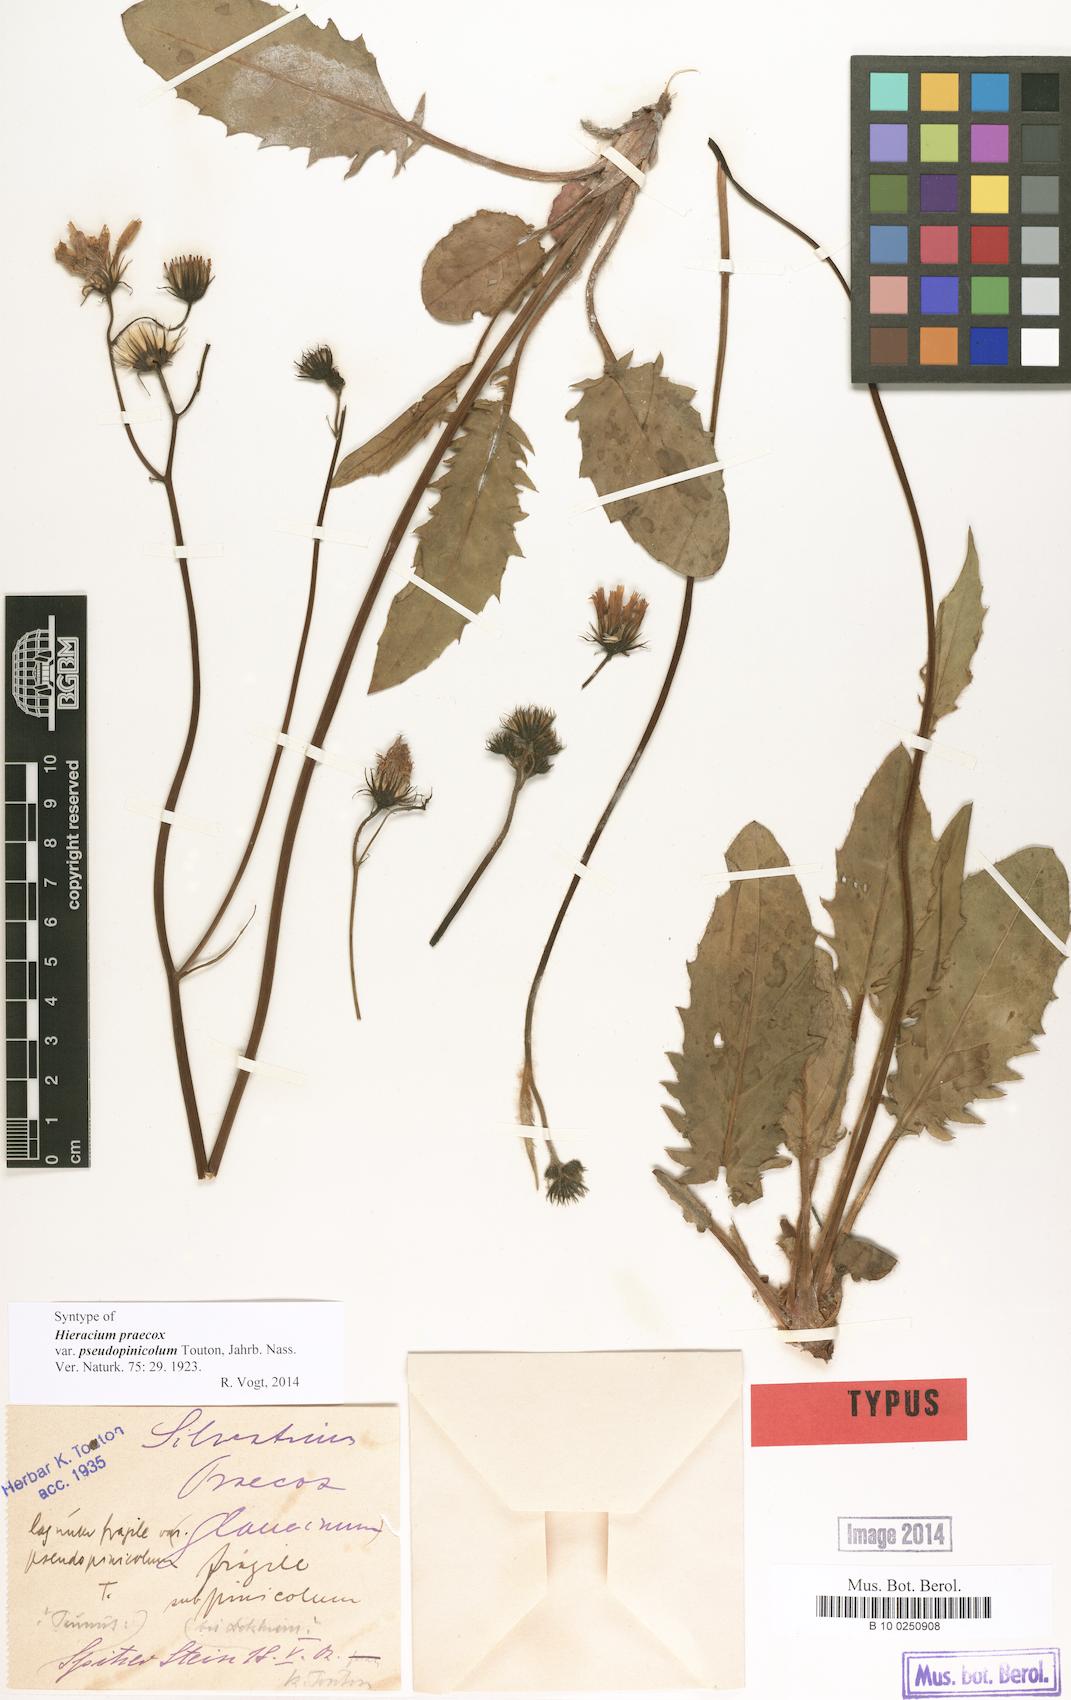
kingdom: Plantae
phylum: Tracheophyta
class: Magnoliopsida
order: Asterales
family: Asteraceae
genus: Hieracium
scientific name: Hieracium praecox
